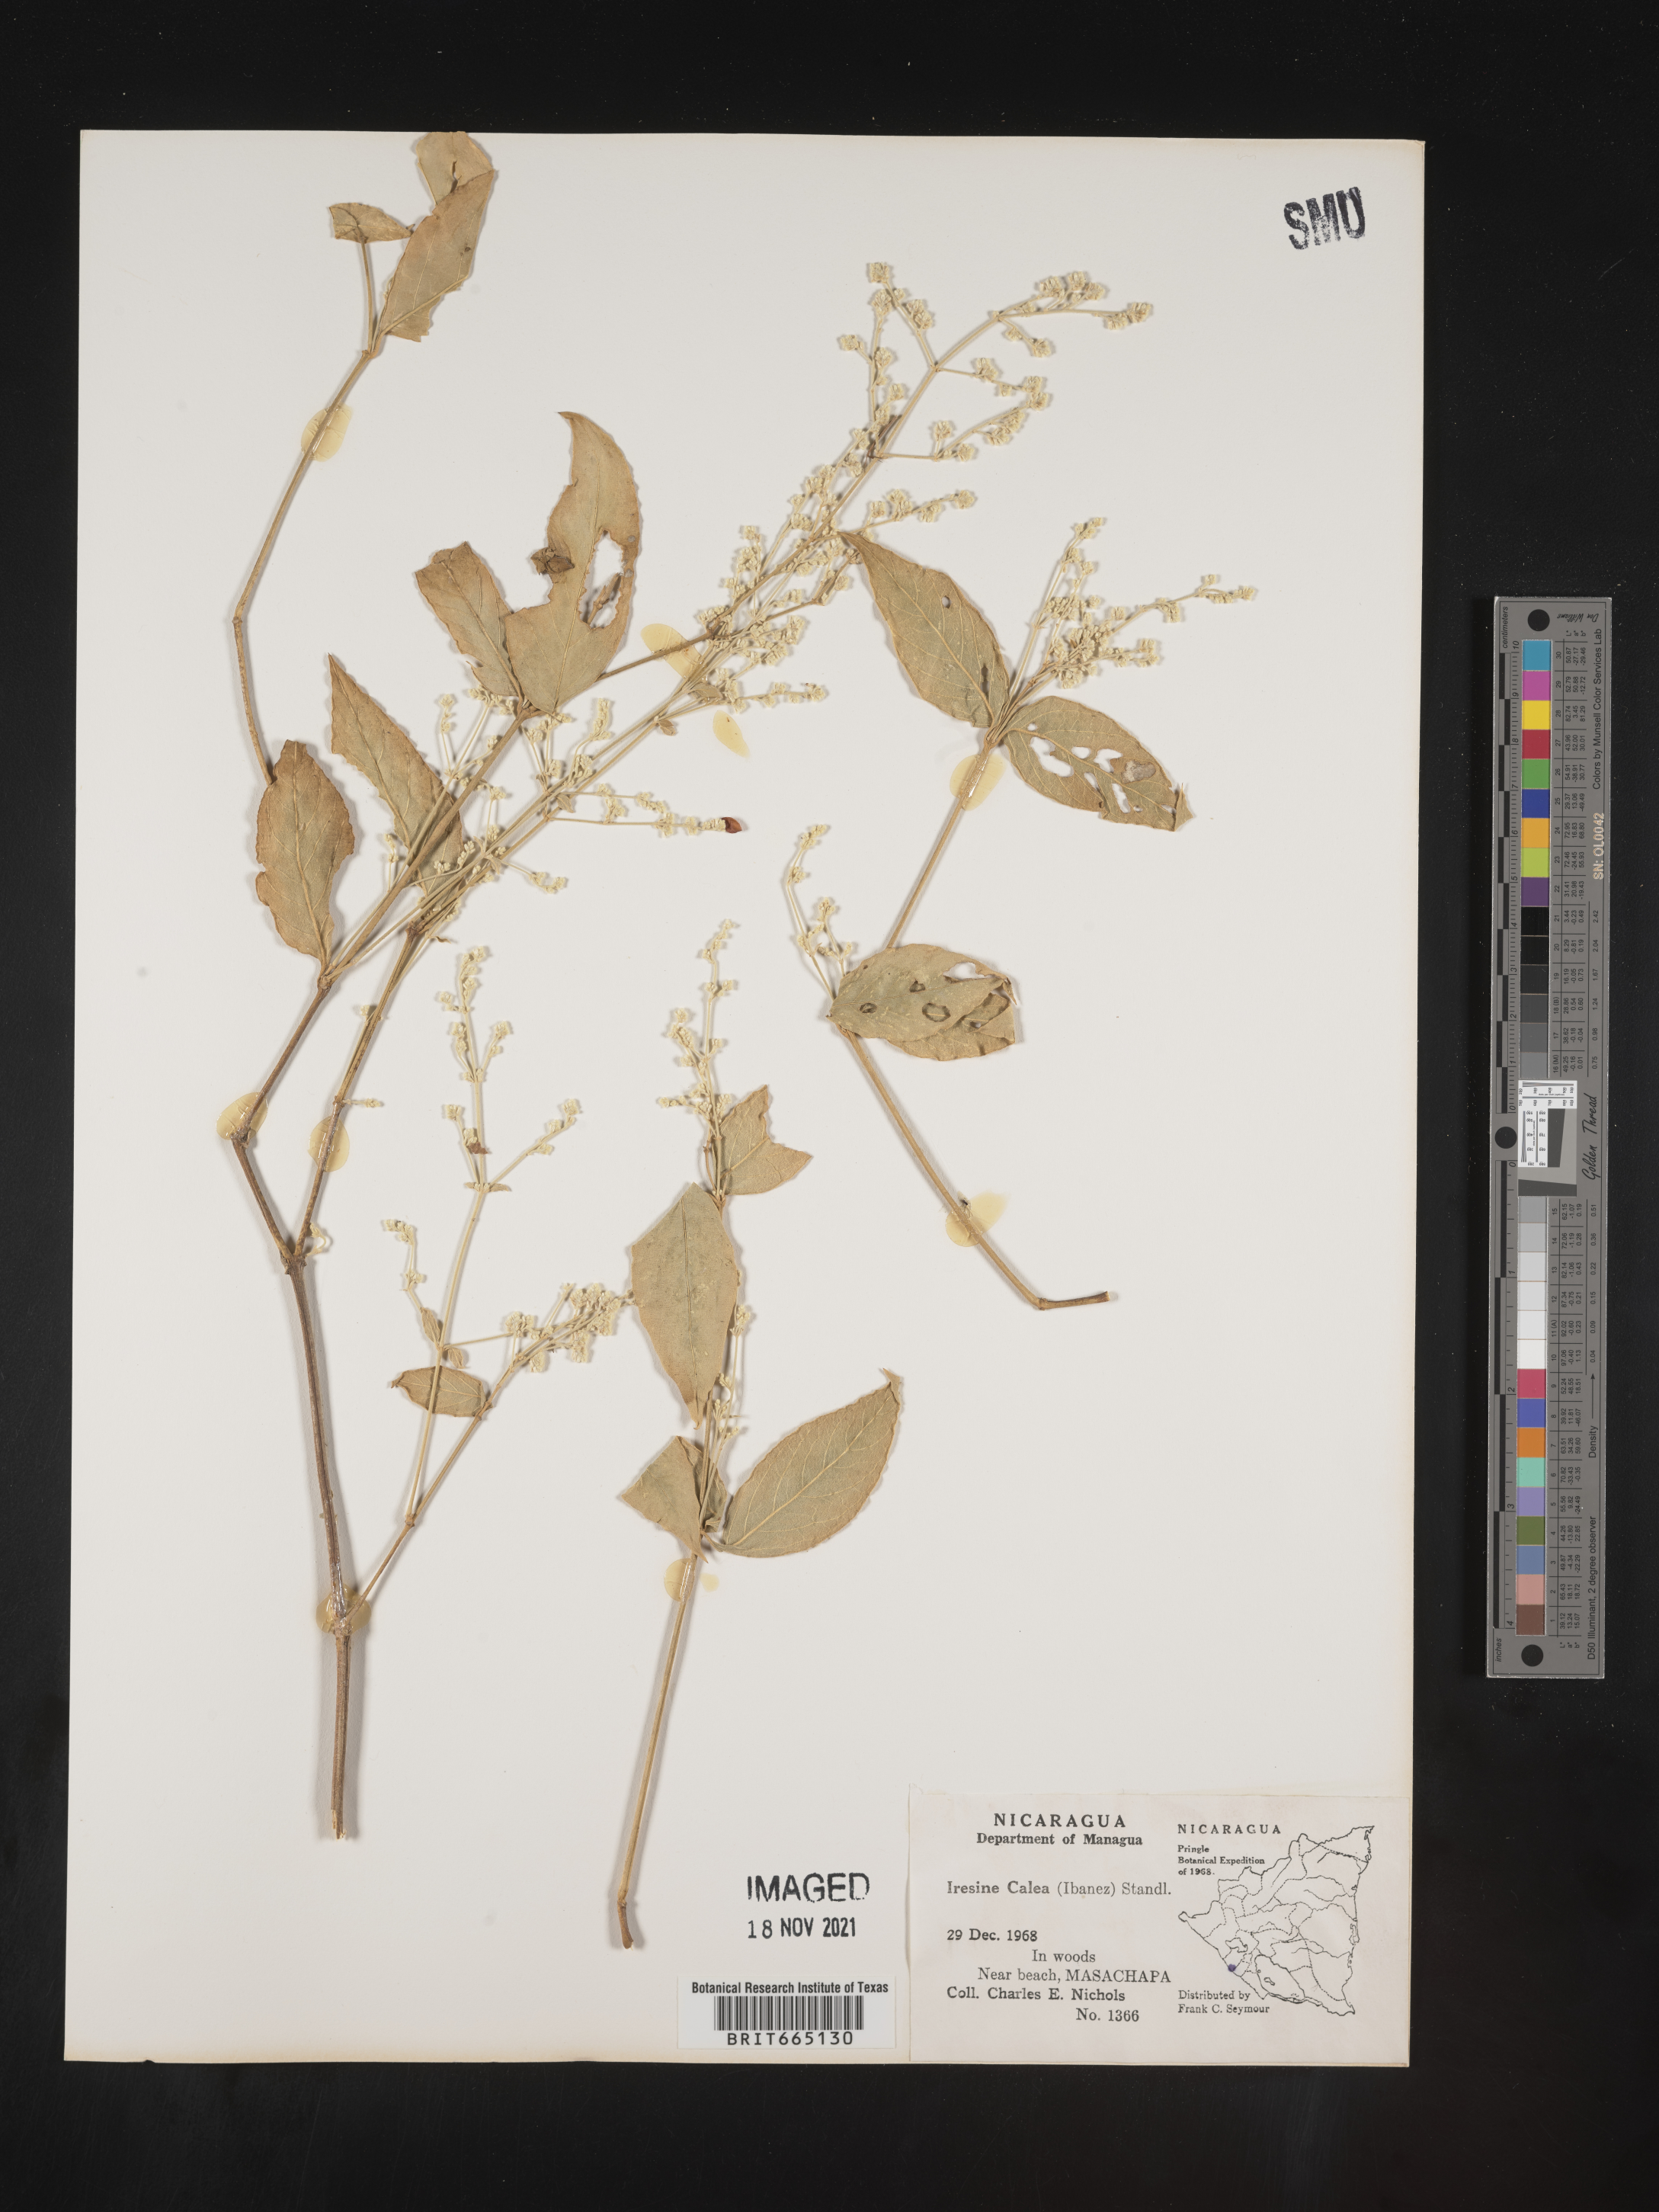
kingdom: Plantae
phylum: Tracheophyta
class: Magnoliopsida
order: Caryophyllales
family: Amaranthaceae
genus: Iresine
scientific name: Iresine
